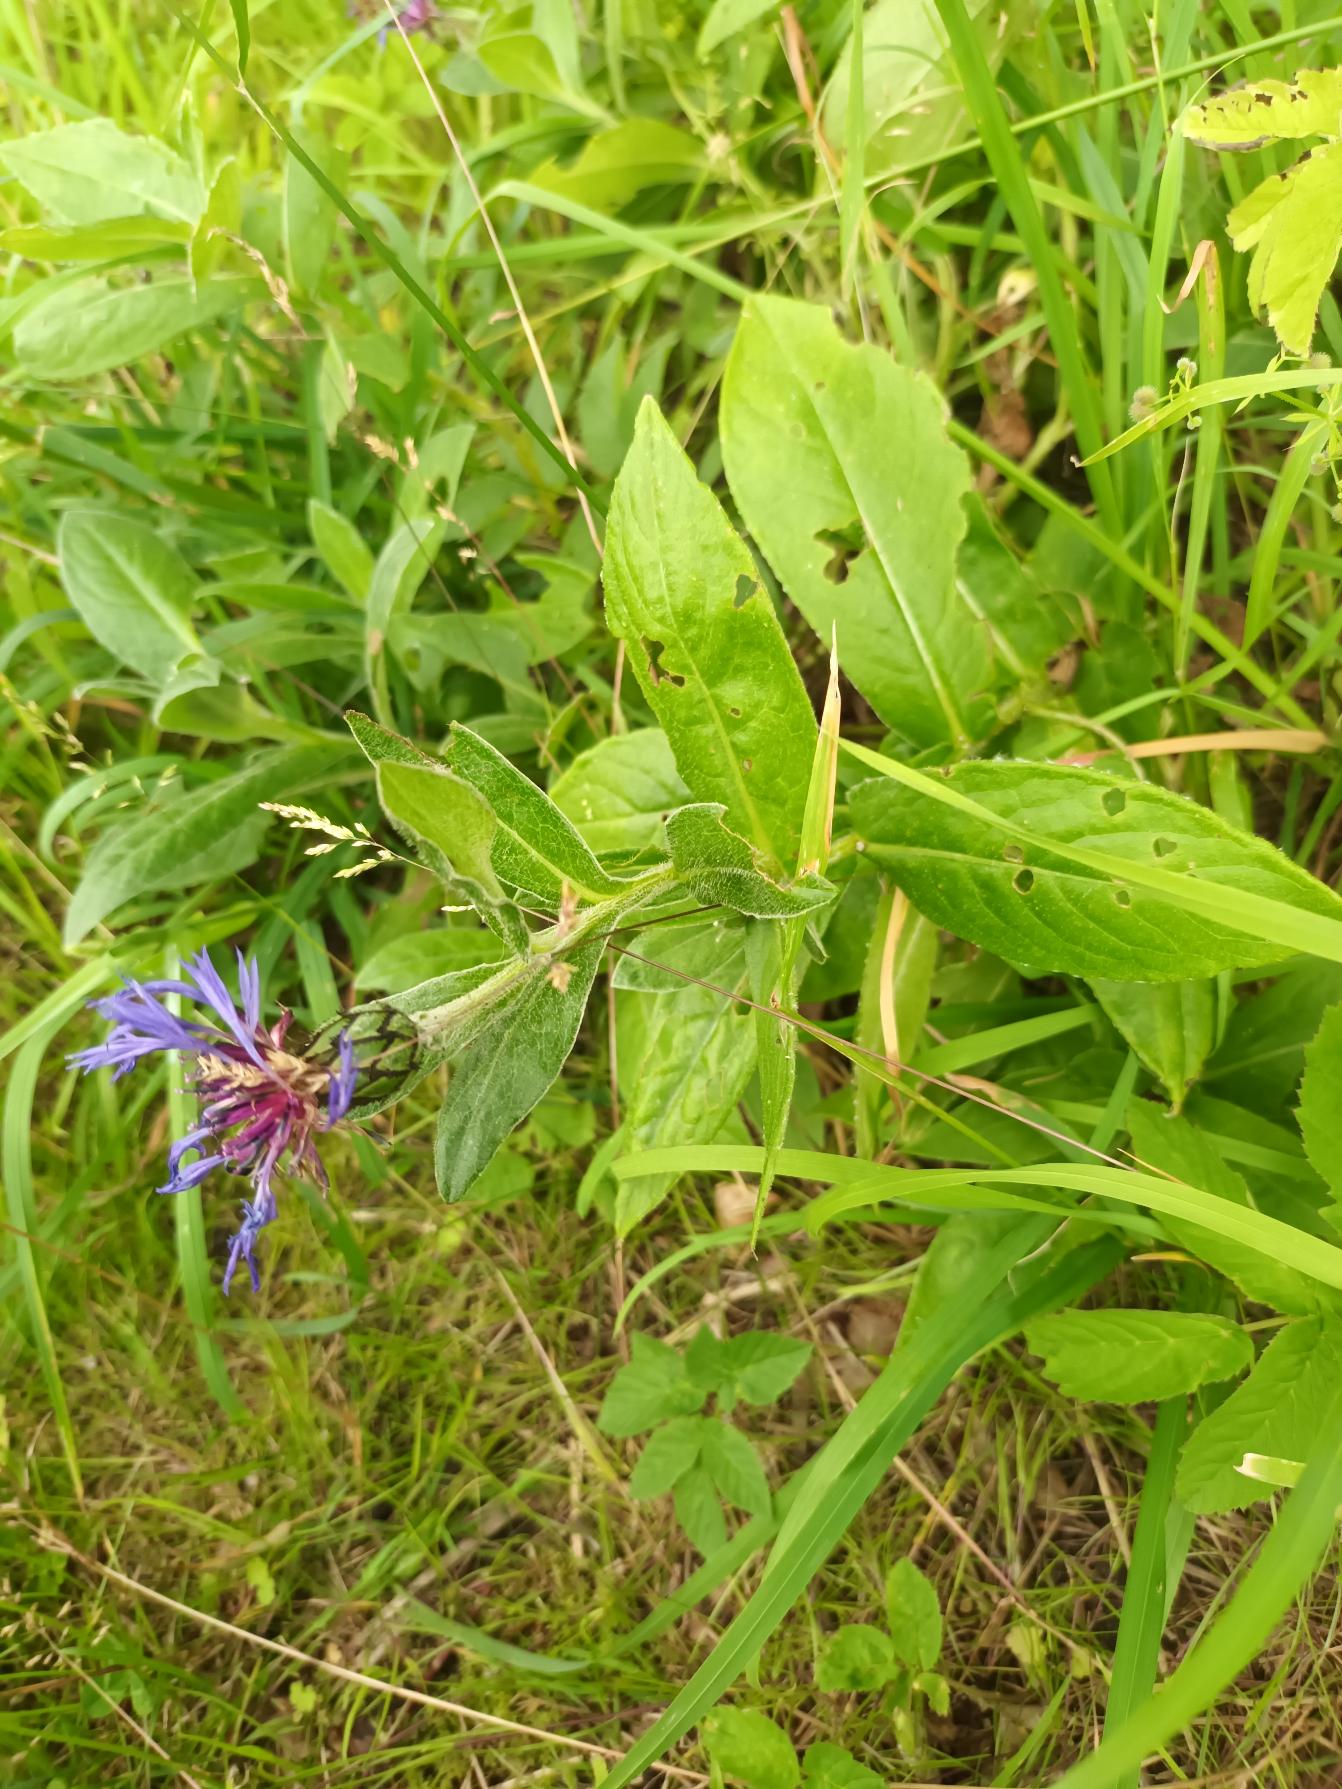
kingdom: Plantae
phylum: Tracheophyta
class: Magnoliopsida
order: Asterales
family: Asteraceae
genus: Centaurea
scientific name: Centaurea montana
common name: Bjerg-knopurt
